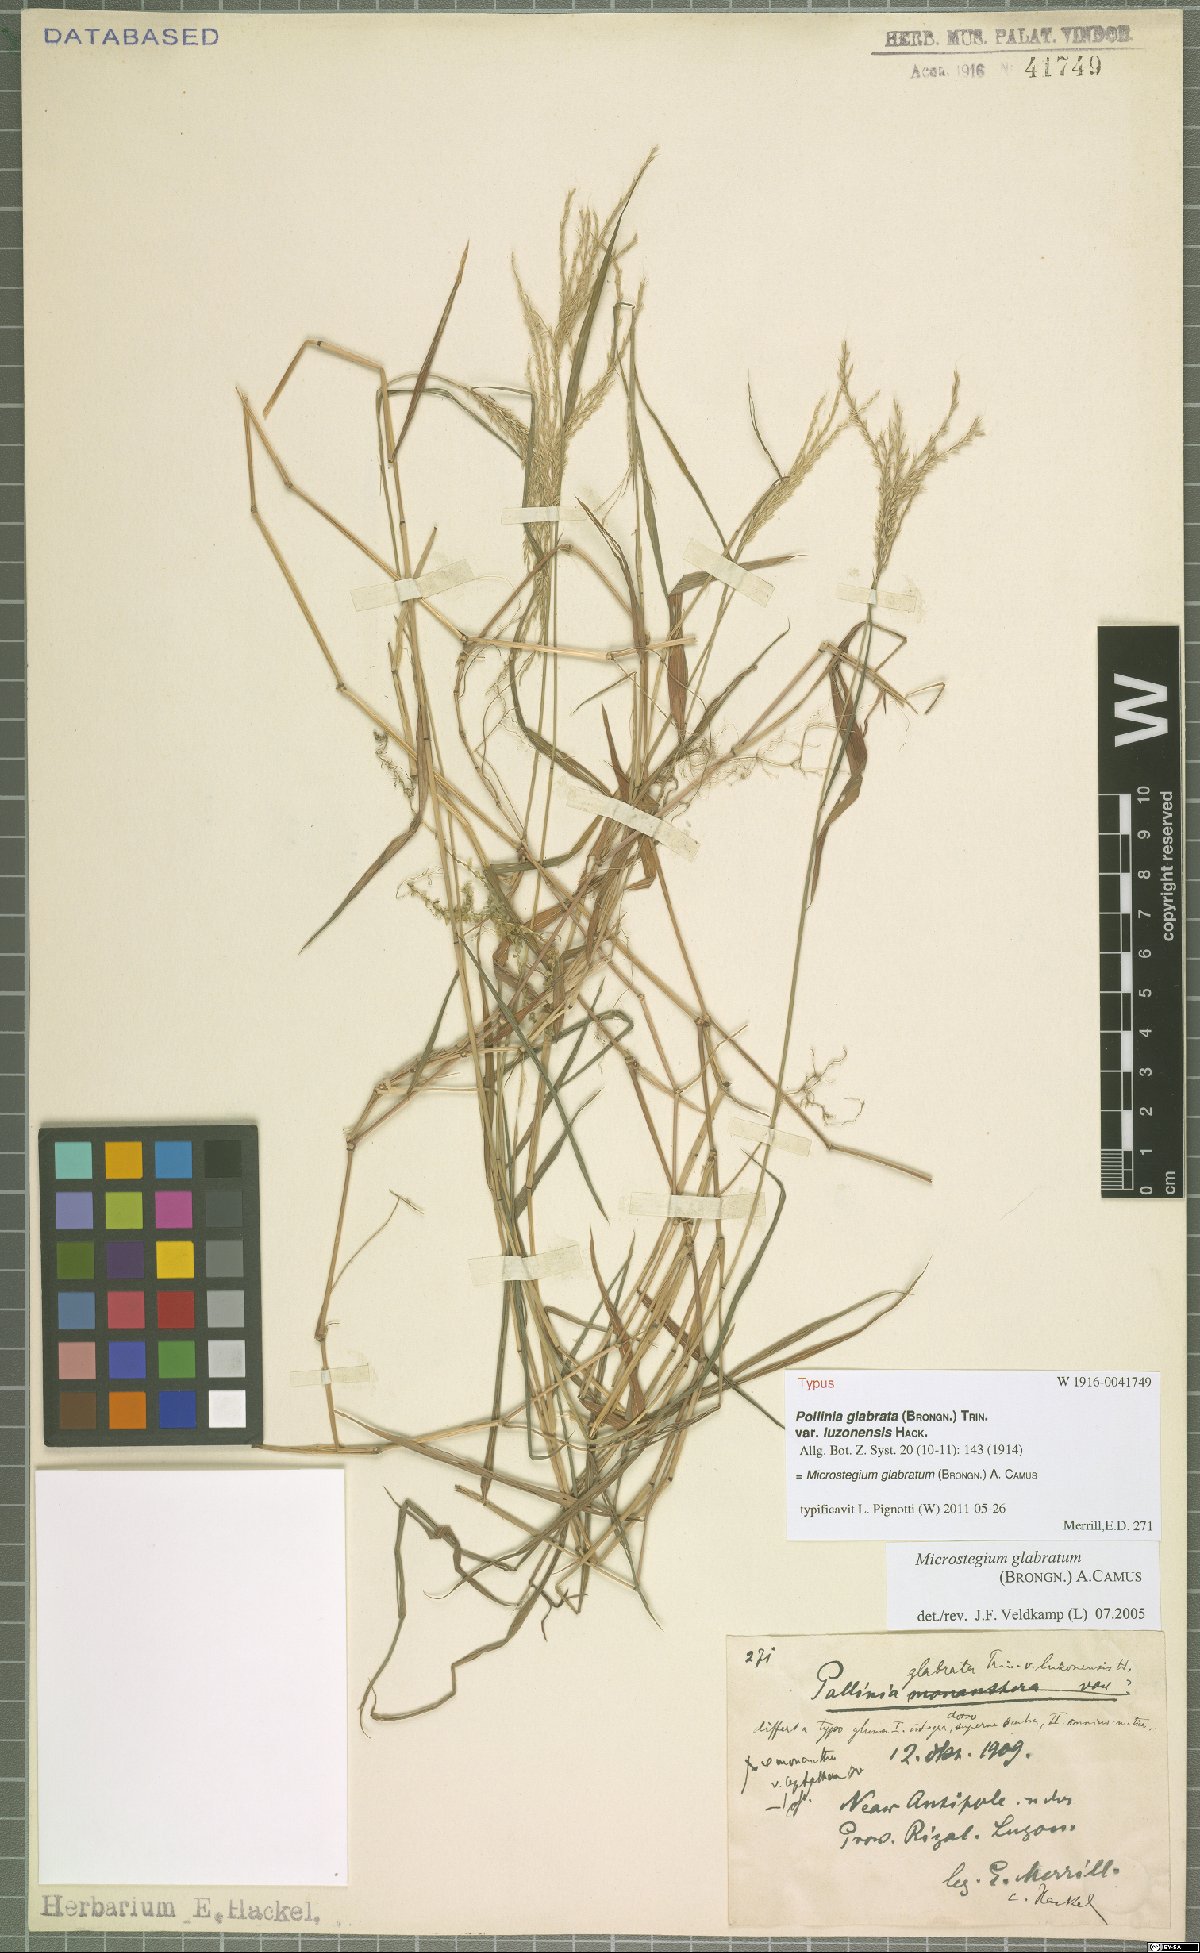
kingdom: Plantae
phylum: Tracheophyta
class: Liliopsida
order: Poales
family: Poaceae
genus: Microstegium
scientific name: Microstegium glabratum
